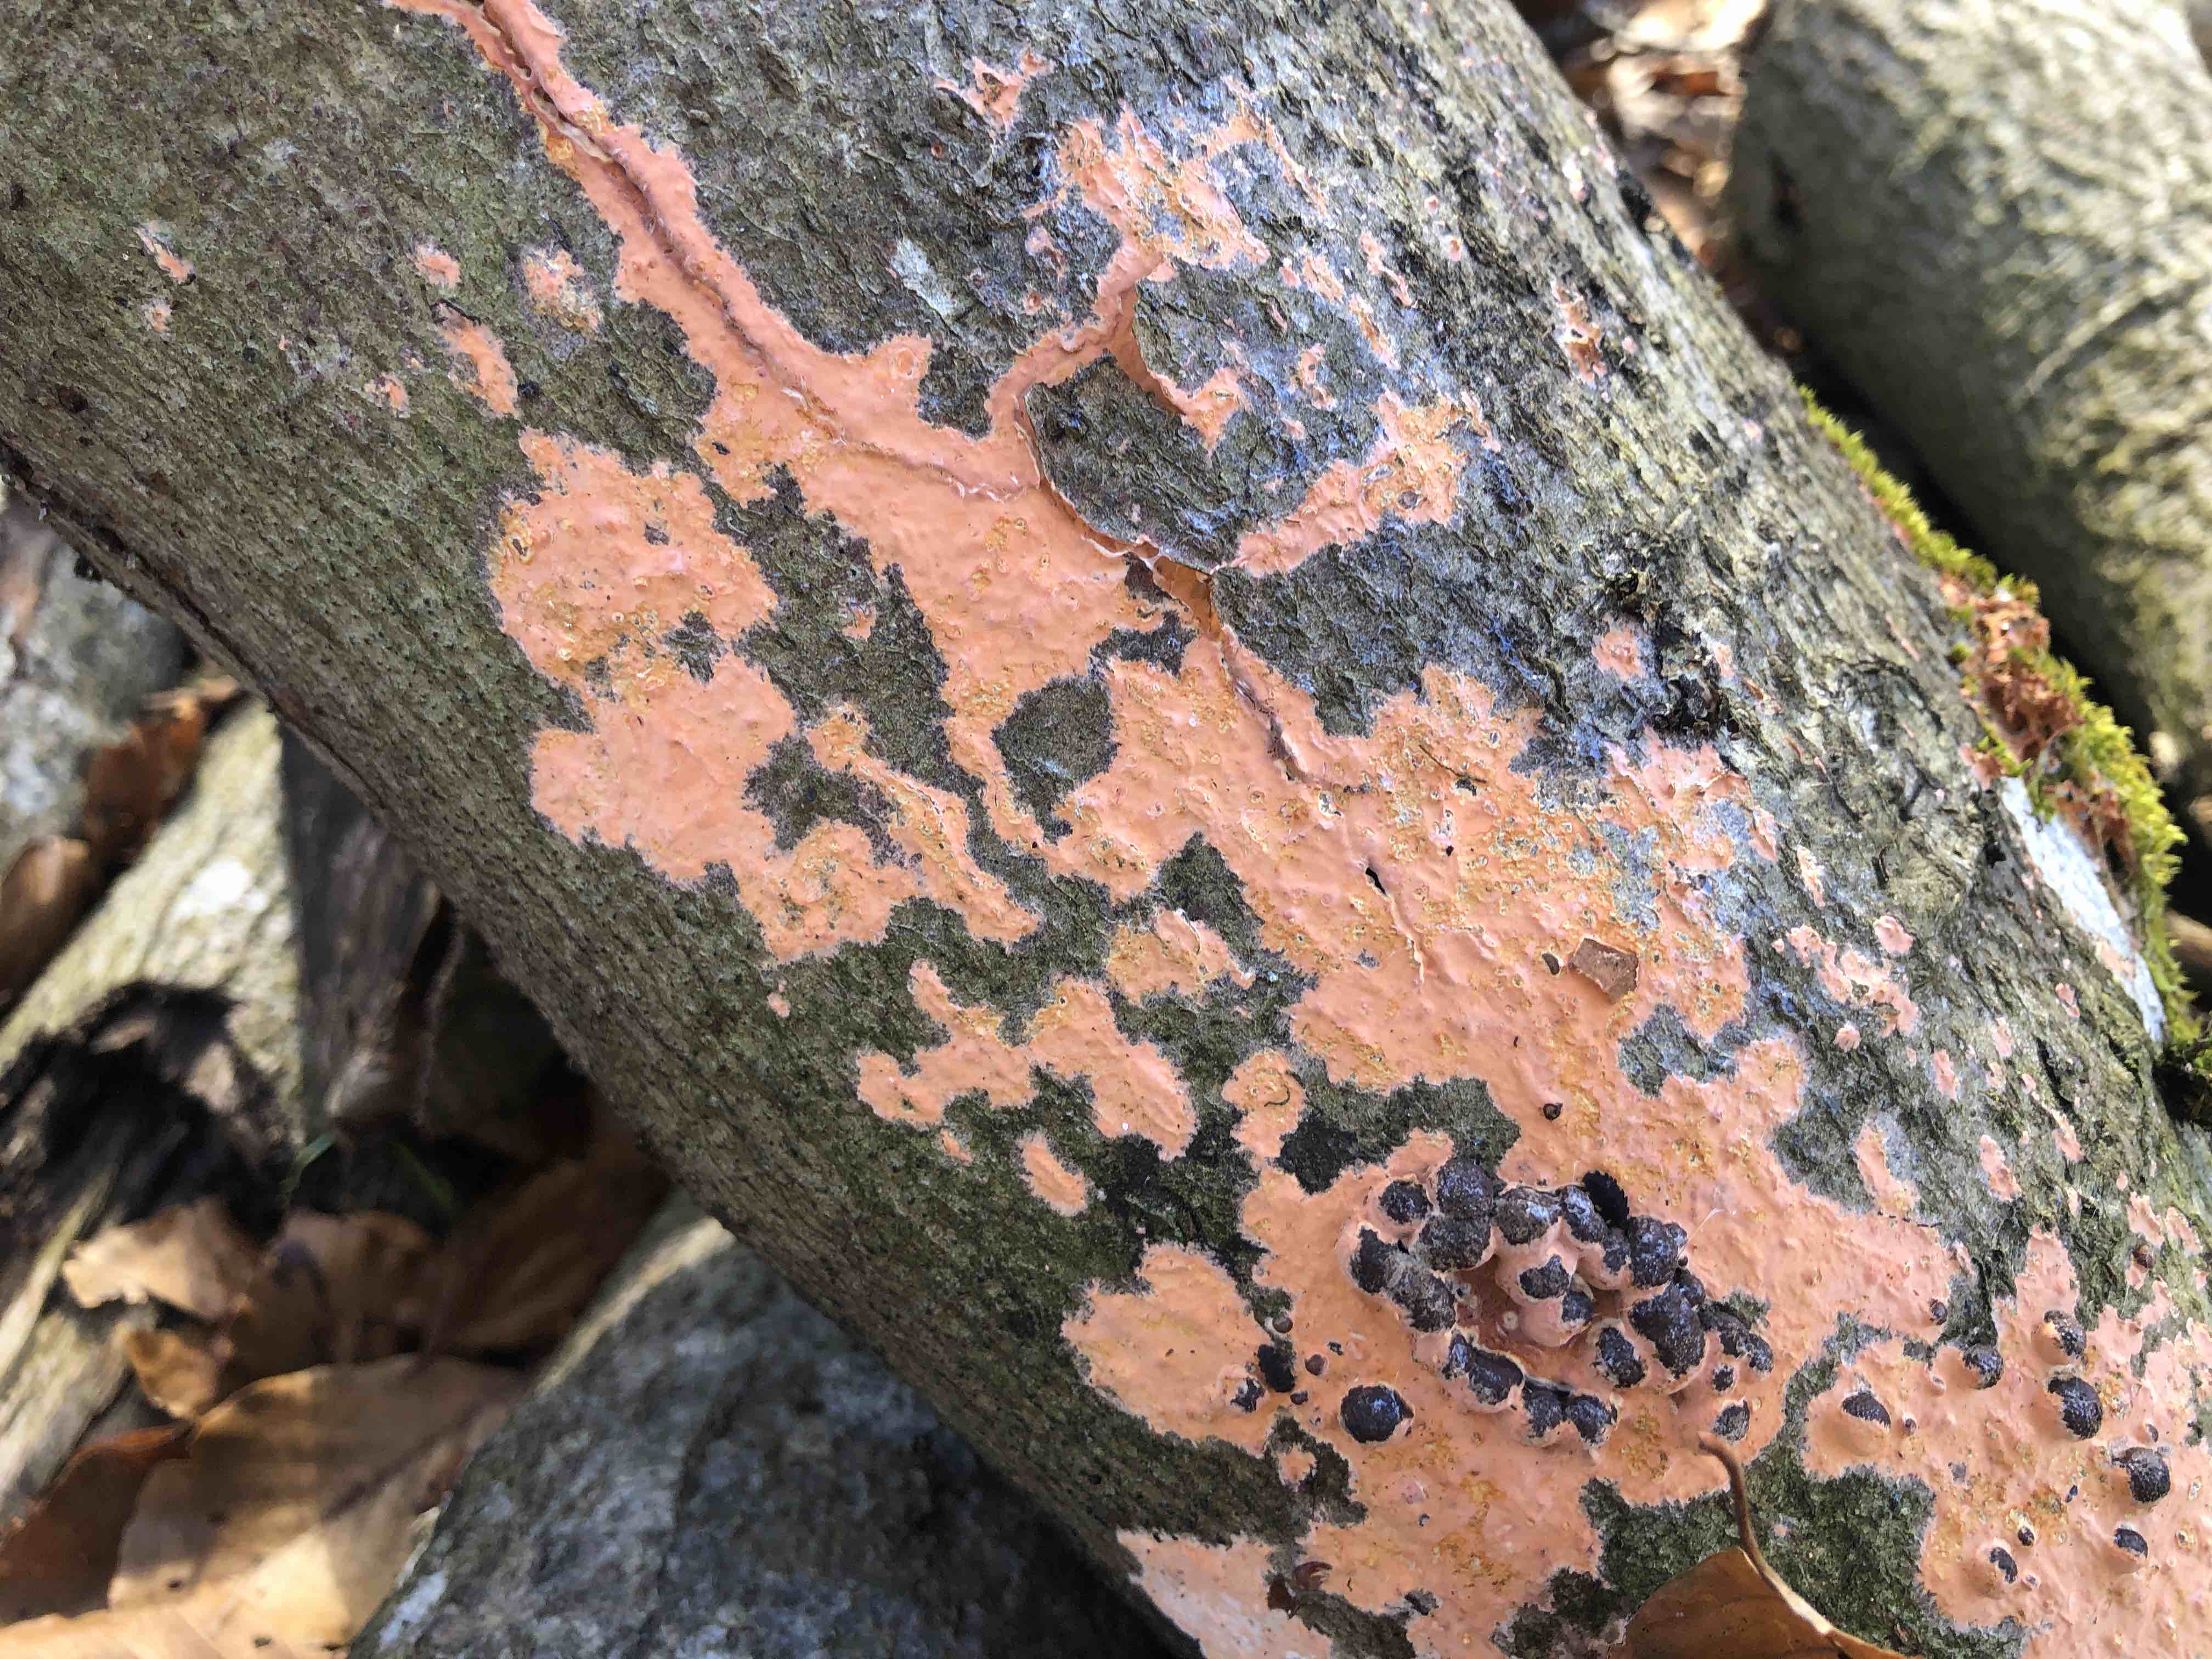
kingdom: Fungi
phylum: Basidiomycota
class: Agaricomycetes
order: Russulales
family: Peniophoraceae
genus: Peniophora
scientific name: Peniophora incarnata
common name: laksefarvet voksskind
